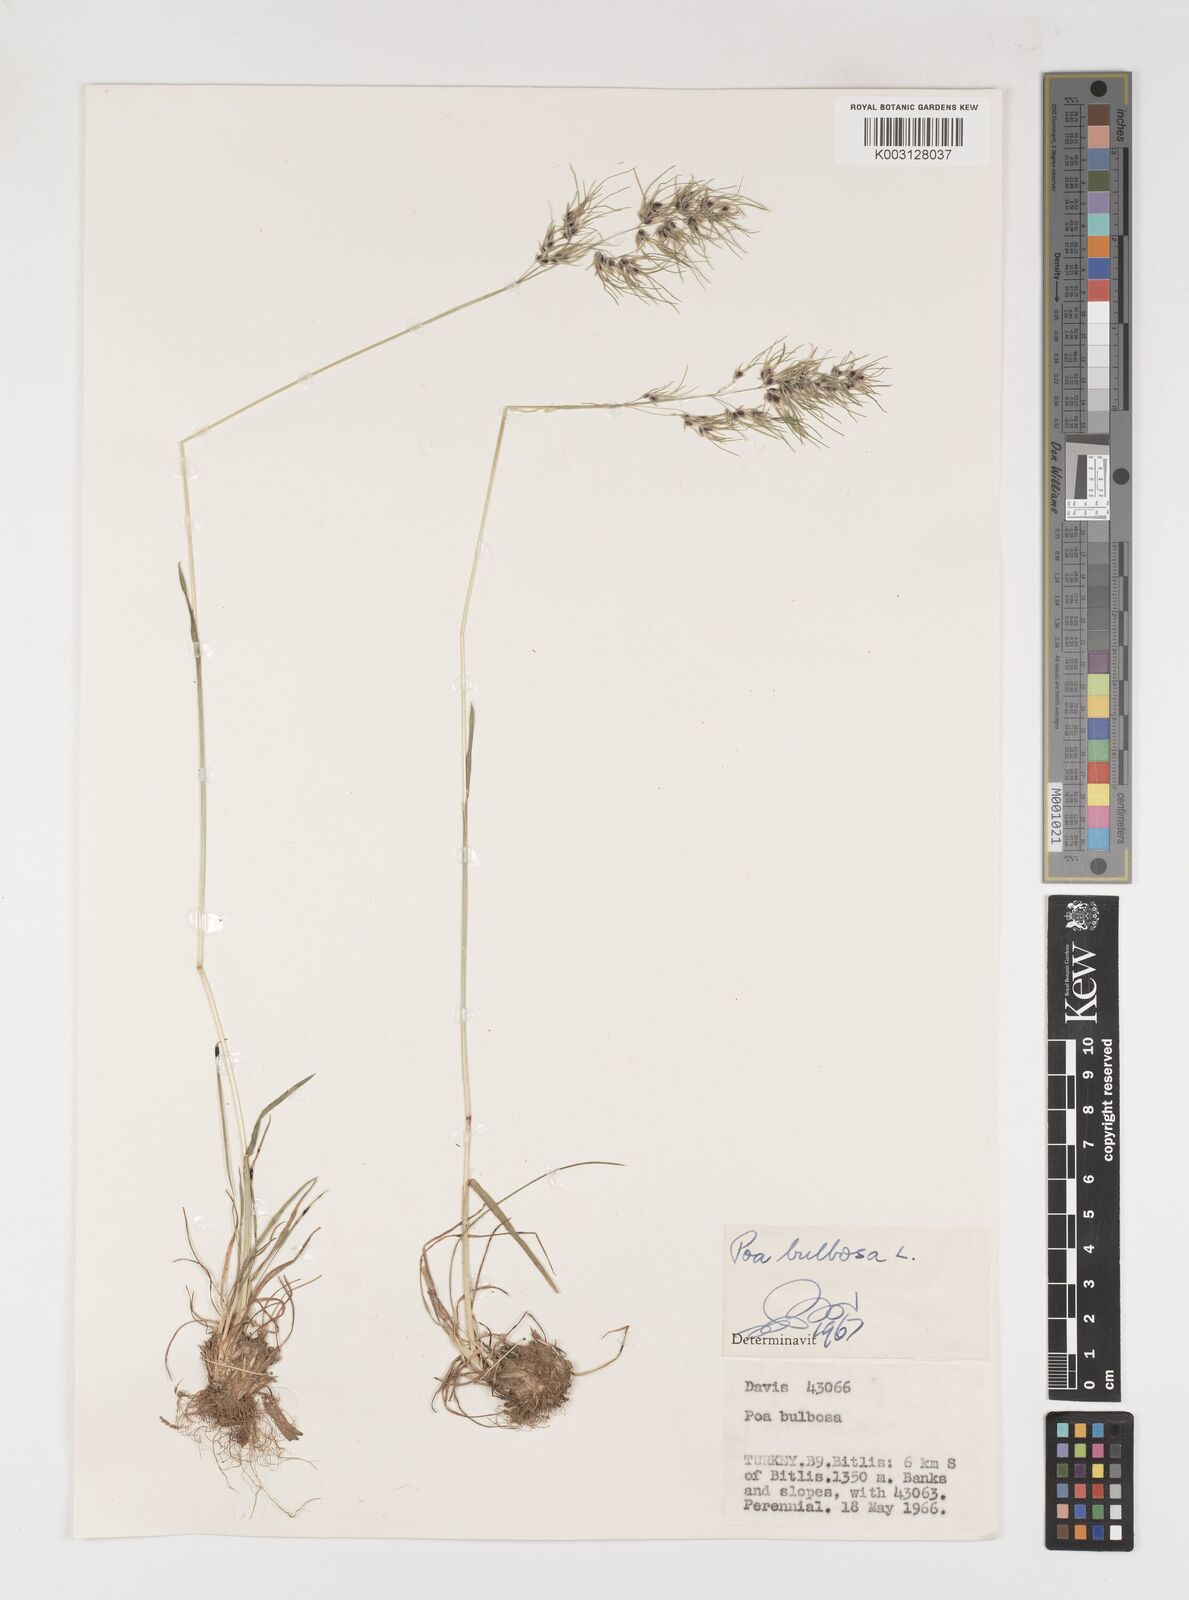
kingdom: Plantae
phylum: Tracheophyta
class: Liliopsida
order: Poales
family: Poaceae
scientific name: Poaceae
